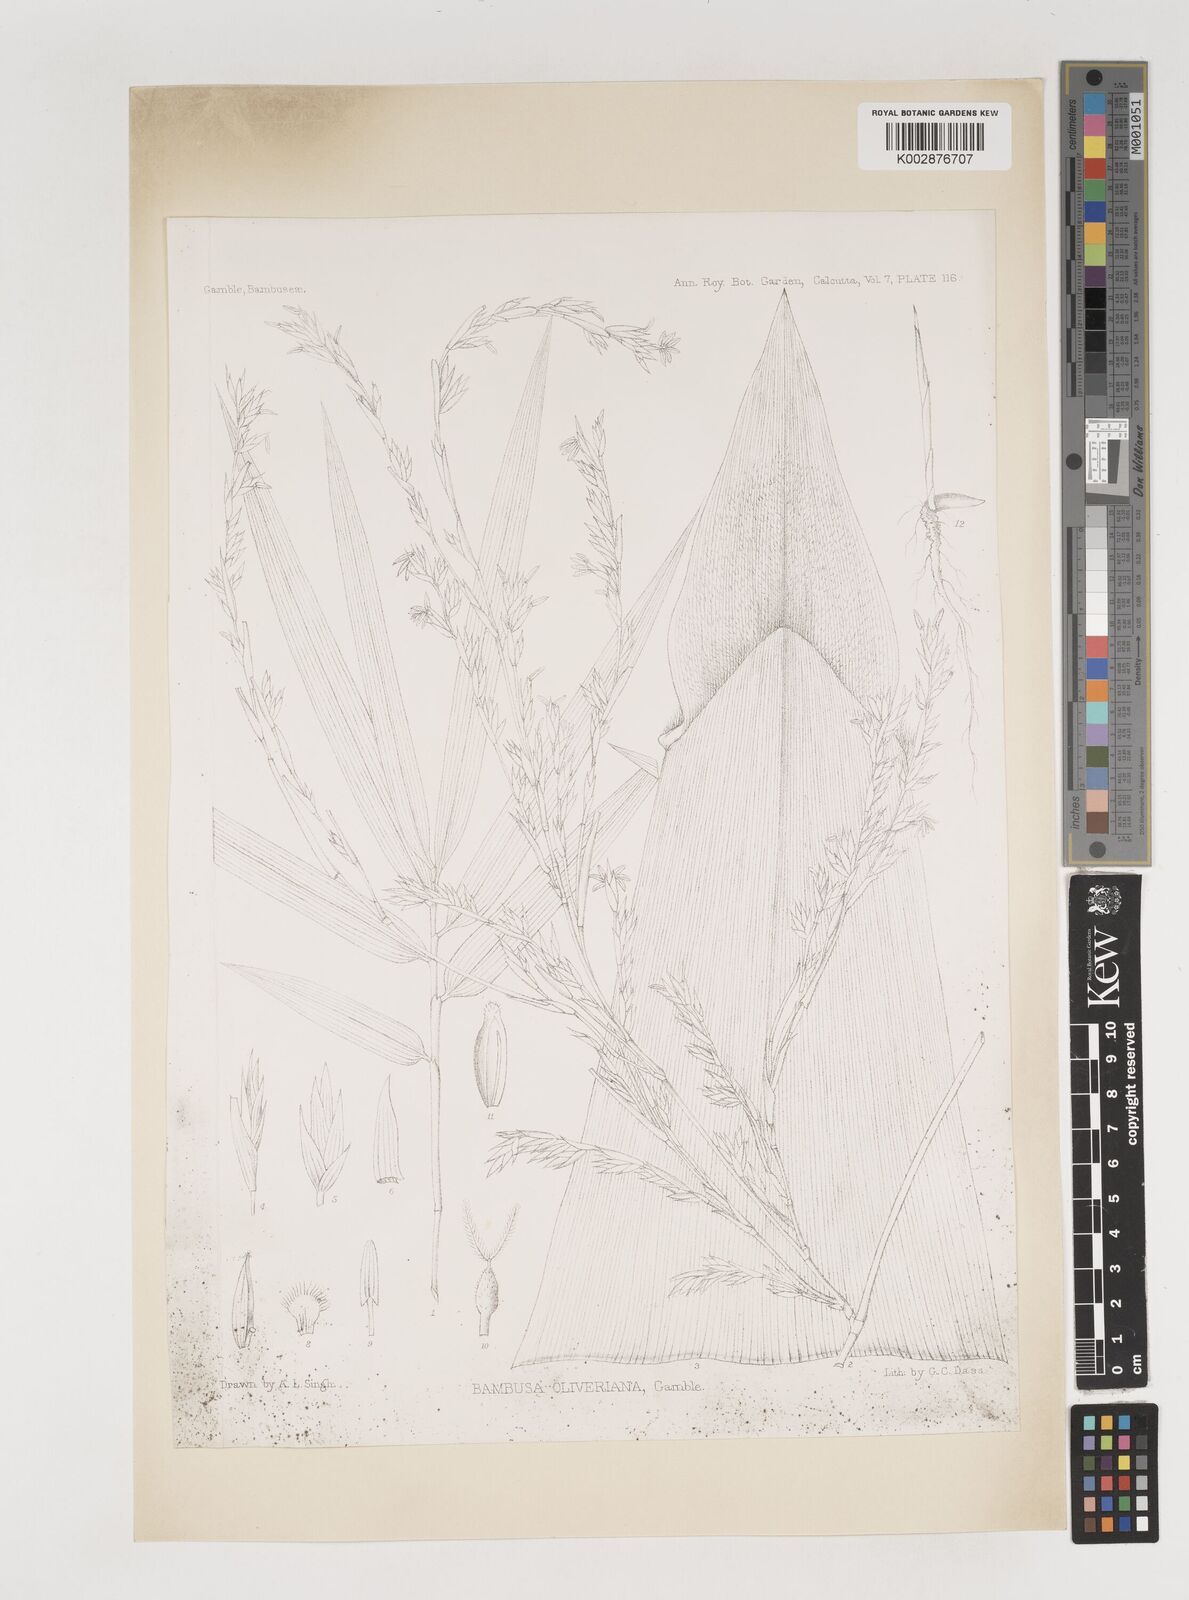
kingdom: Plantae
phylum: Tracheophyta
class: Liliopsida
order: Poales
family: Poaceae
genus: Bambusa
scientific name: Bambusa oliveriana
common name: Bush bamboo
